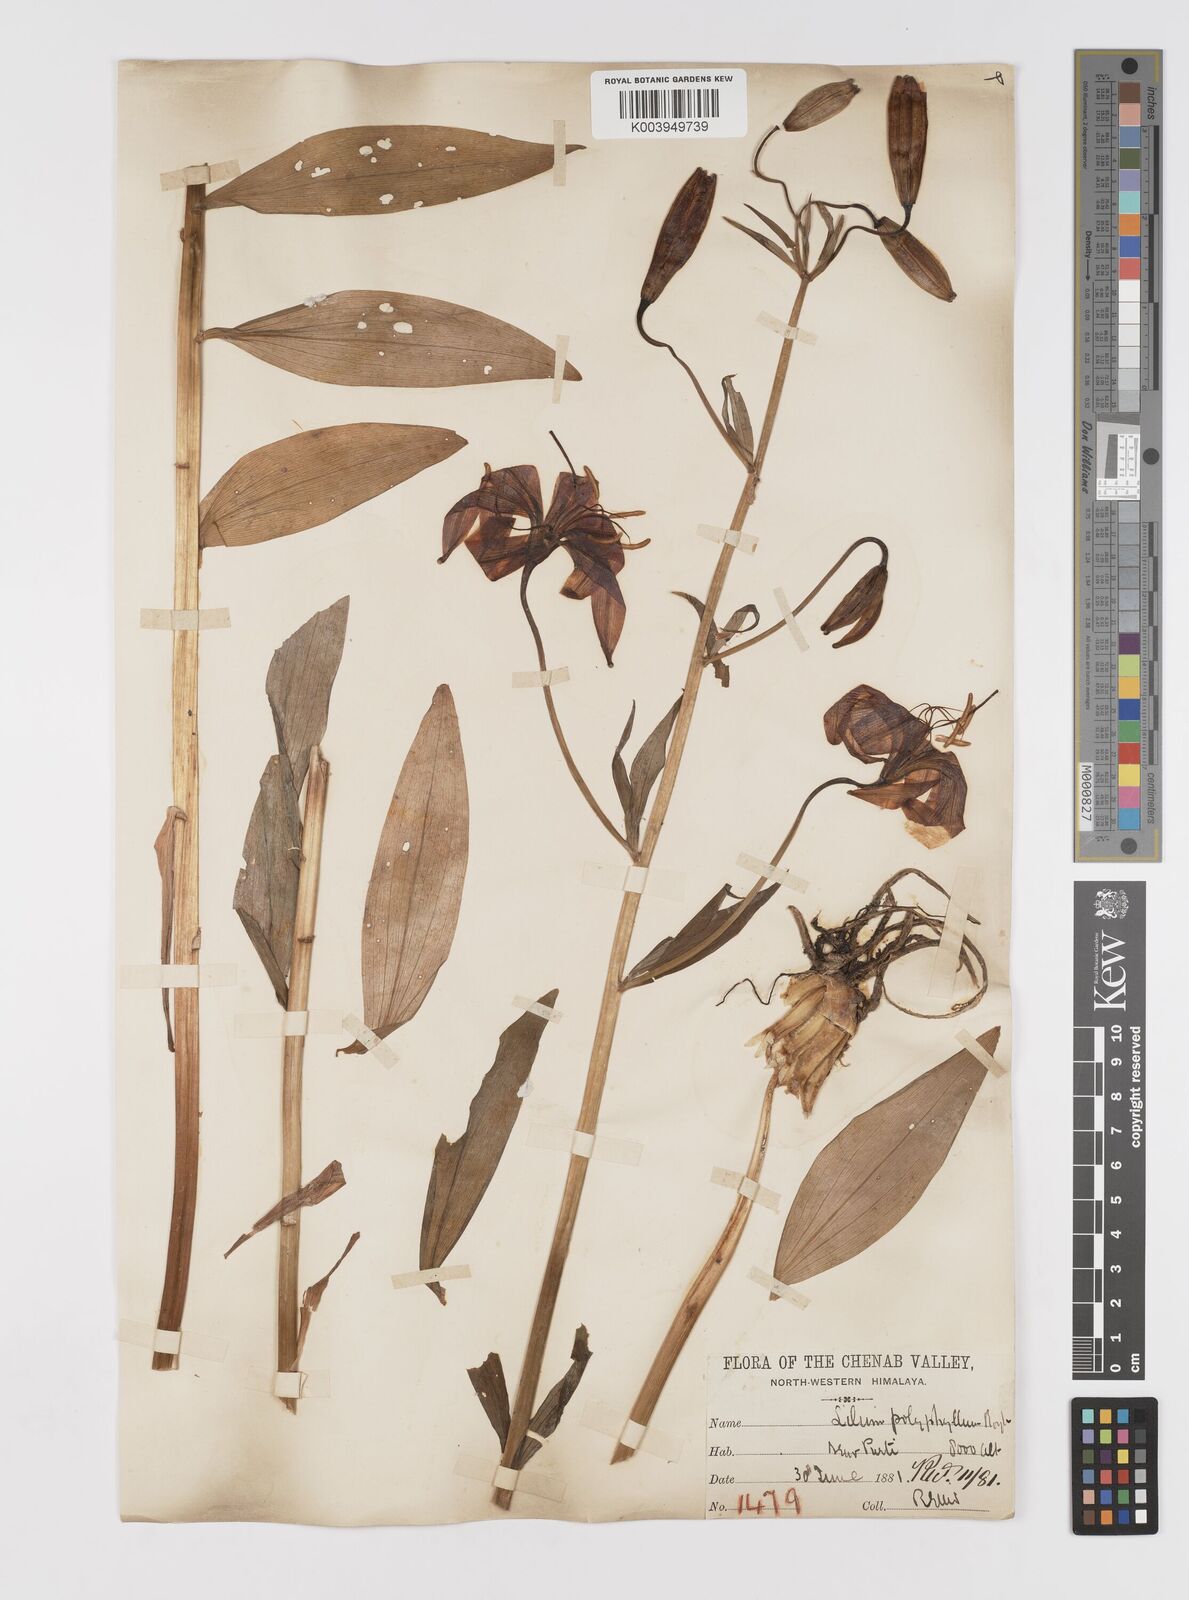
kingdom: Plantae
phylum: Tracheophyta
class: Liliopsida
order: Liliales
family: Liliaceae
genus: Lilium
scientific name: Lilium polyphyllum
